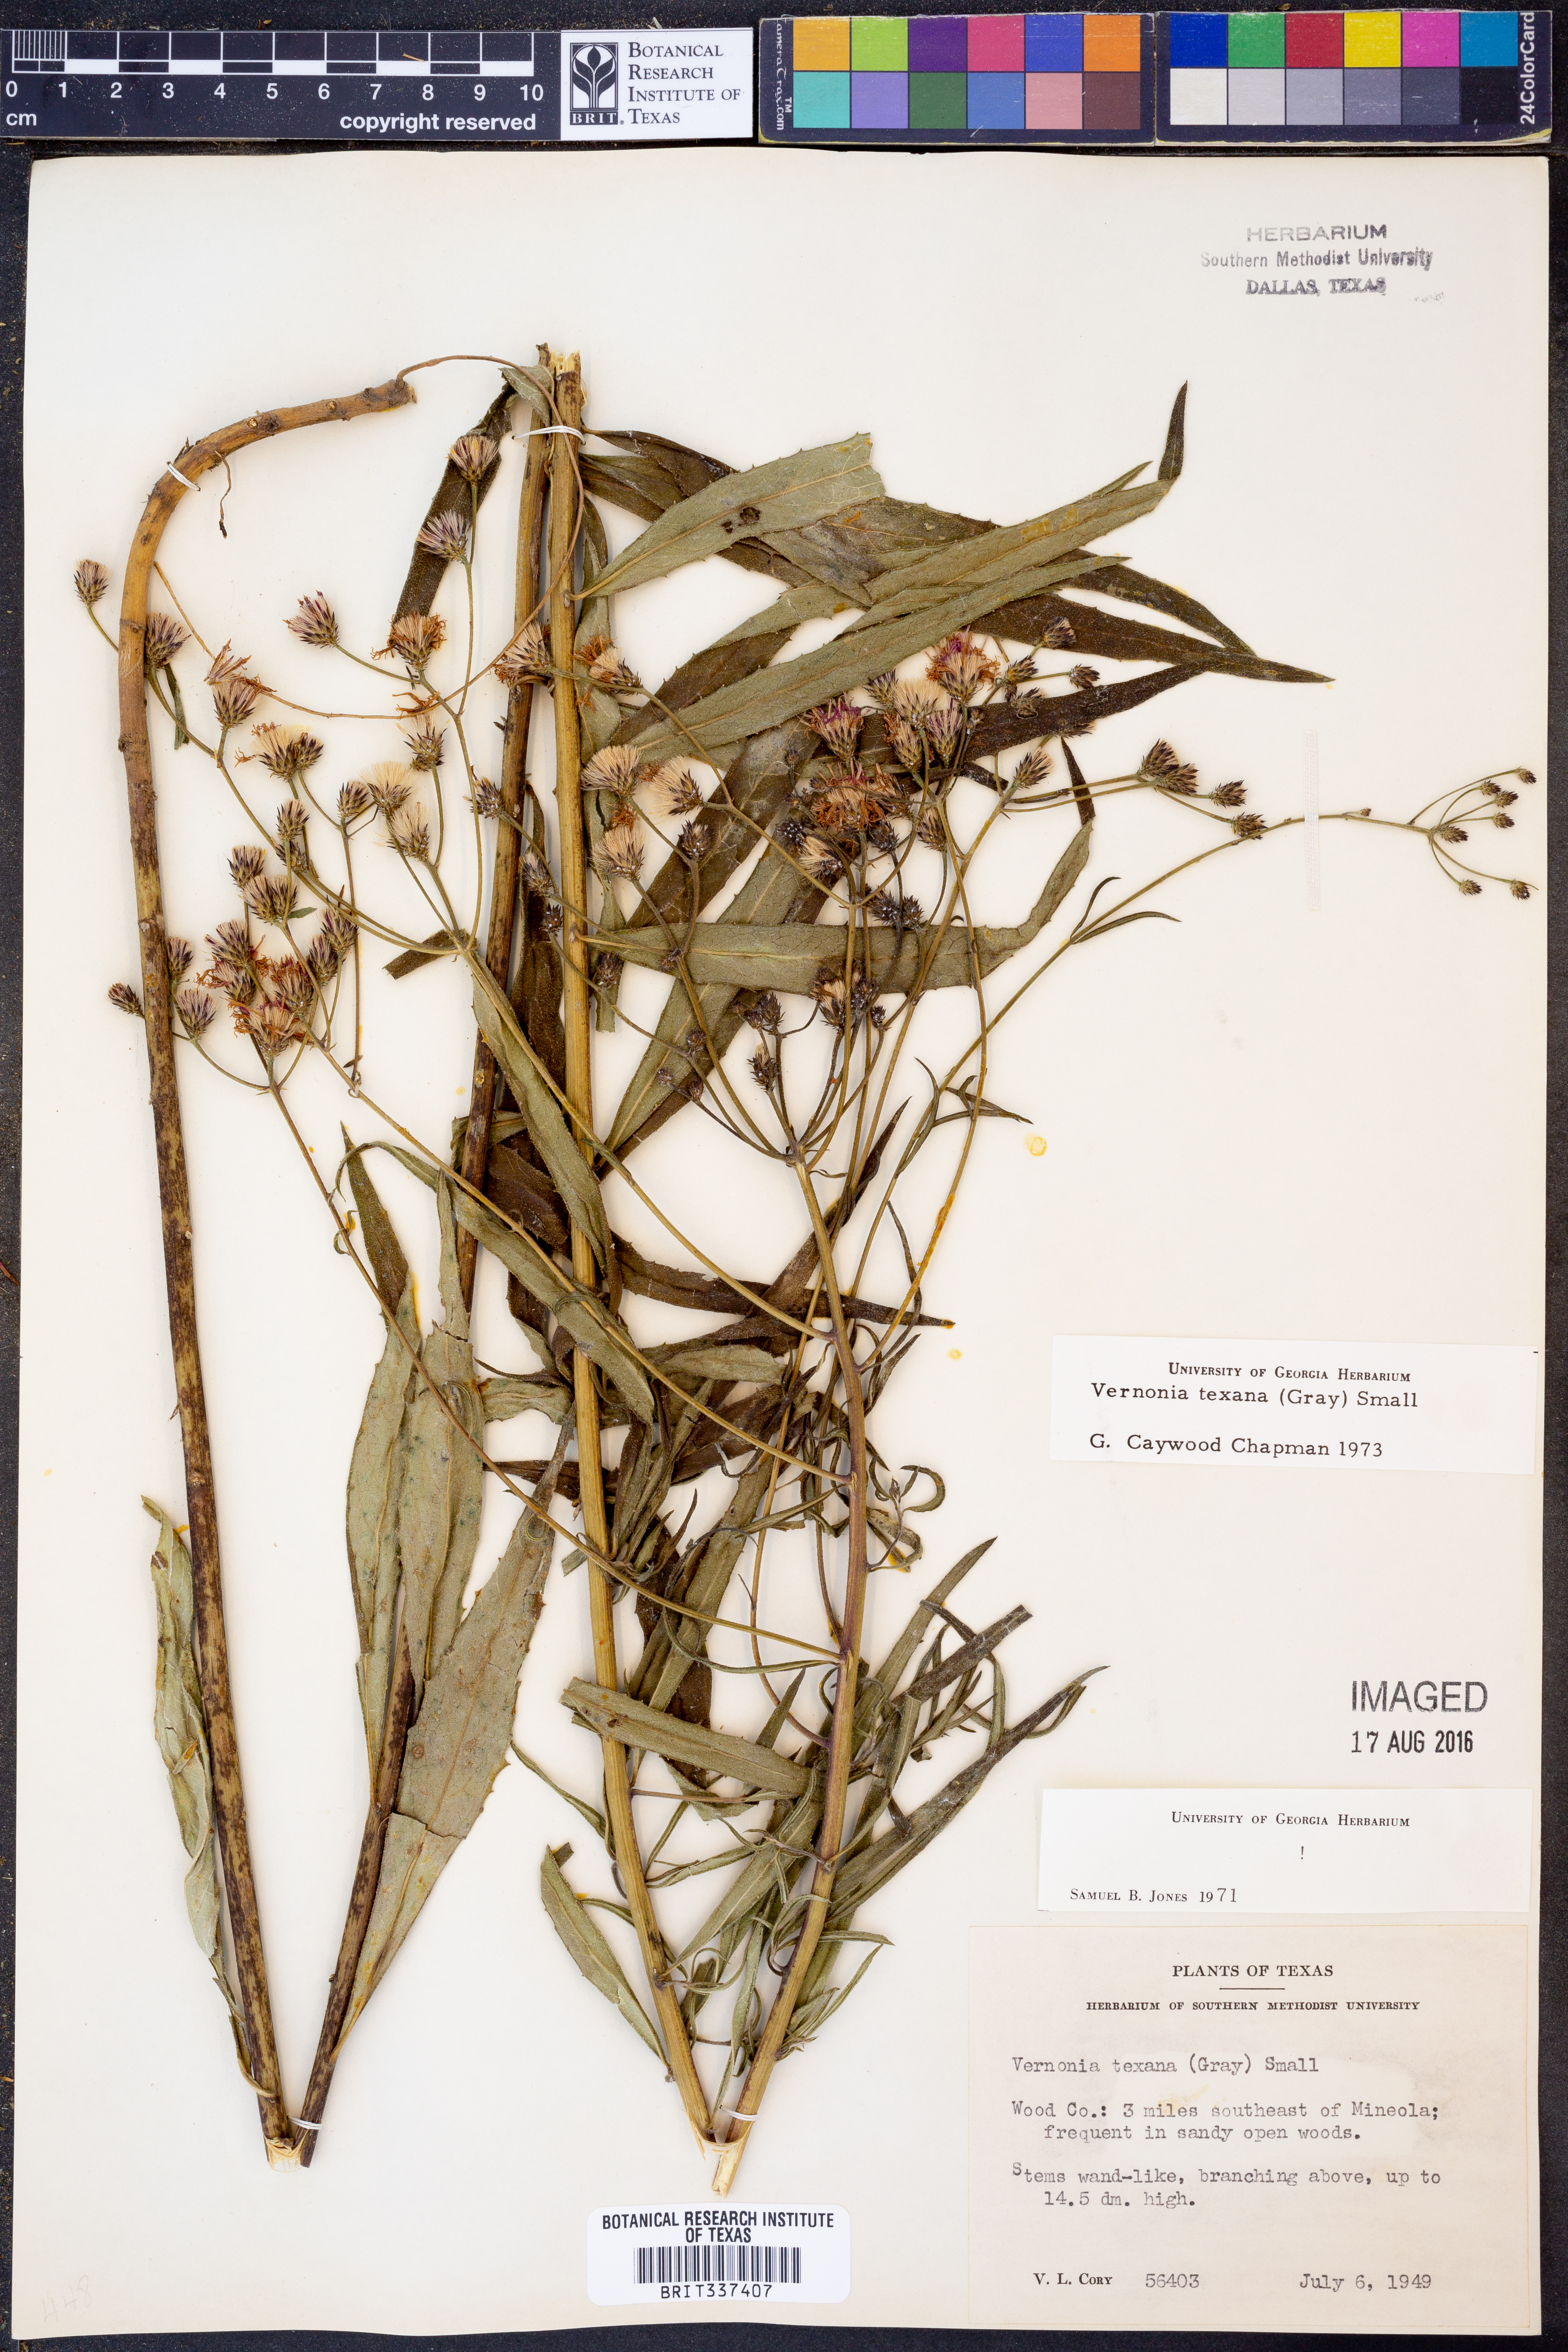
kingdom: Plantae
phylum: Tracheophyta
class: Magnoliopsida
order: Asterales
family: Asteraceae
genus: Vernonia
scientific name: Vernonia texana
